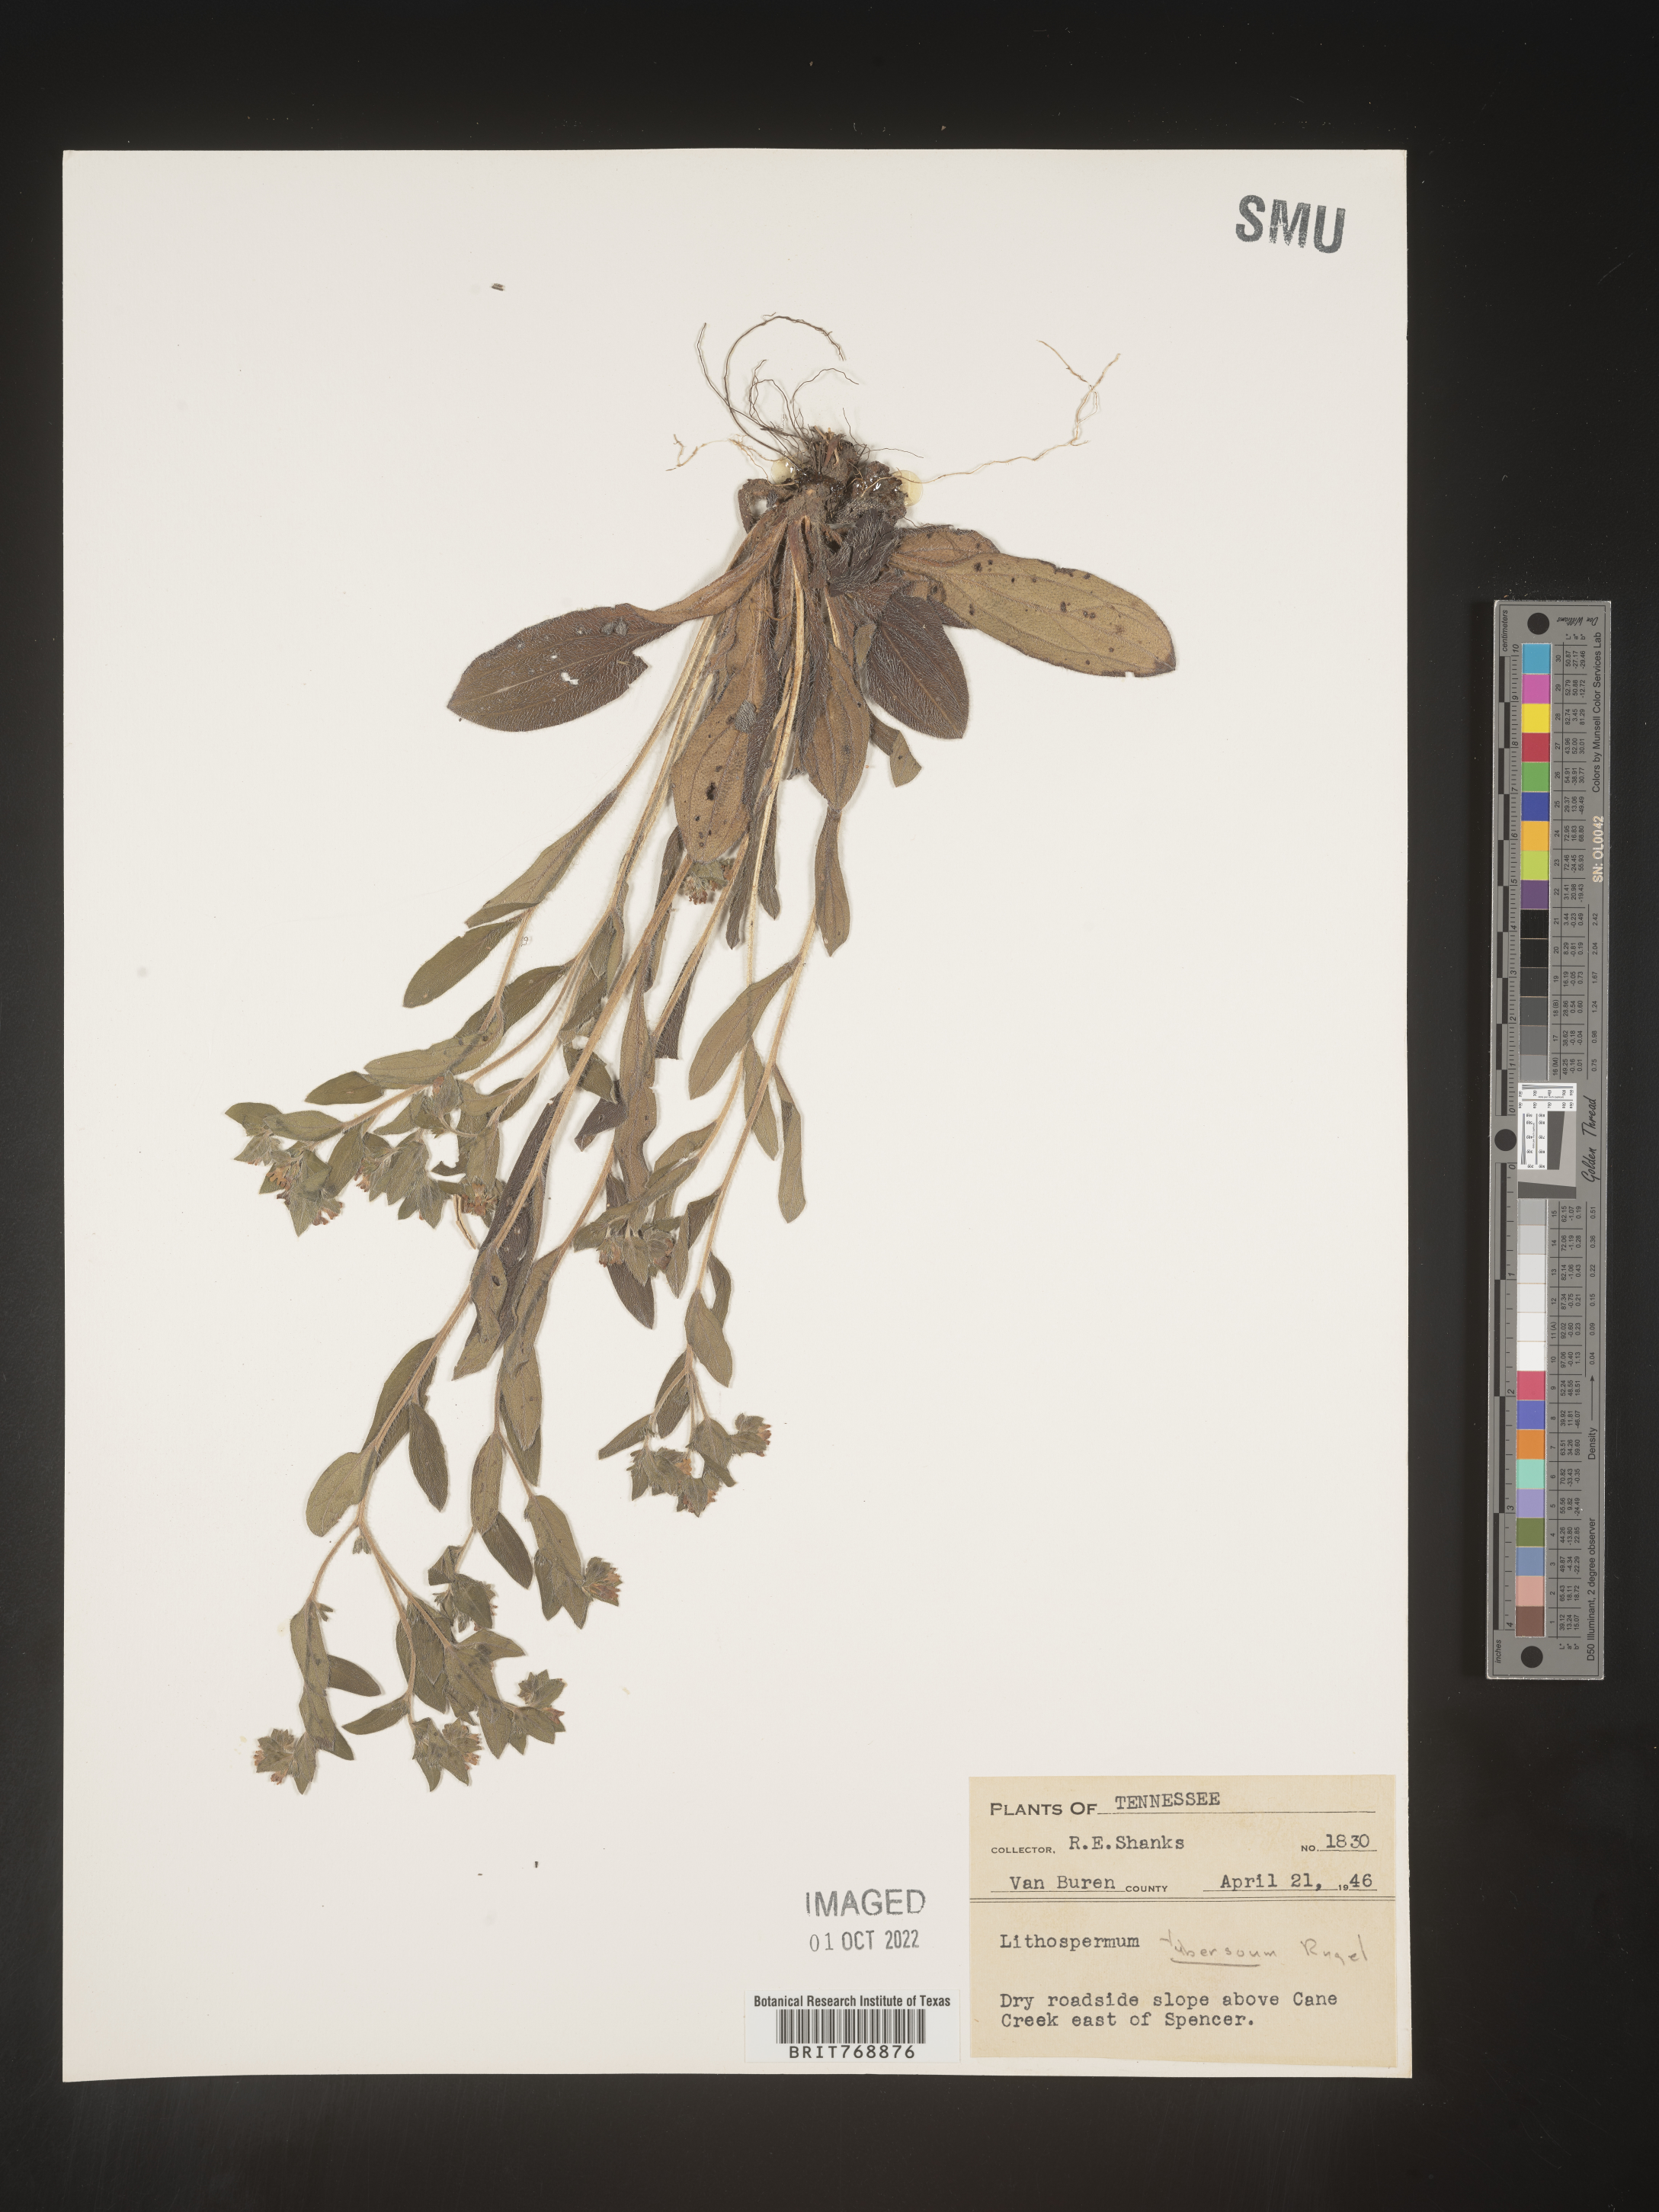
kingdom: Plantae
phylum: Tracheophyta
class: Magnoliopsida
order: Boraginales
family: Boraginaceae
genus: Lithospermum
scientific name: Lithospermum
